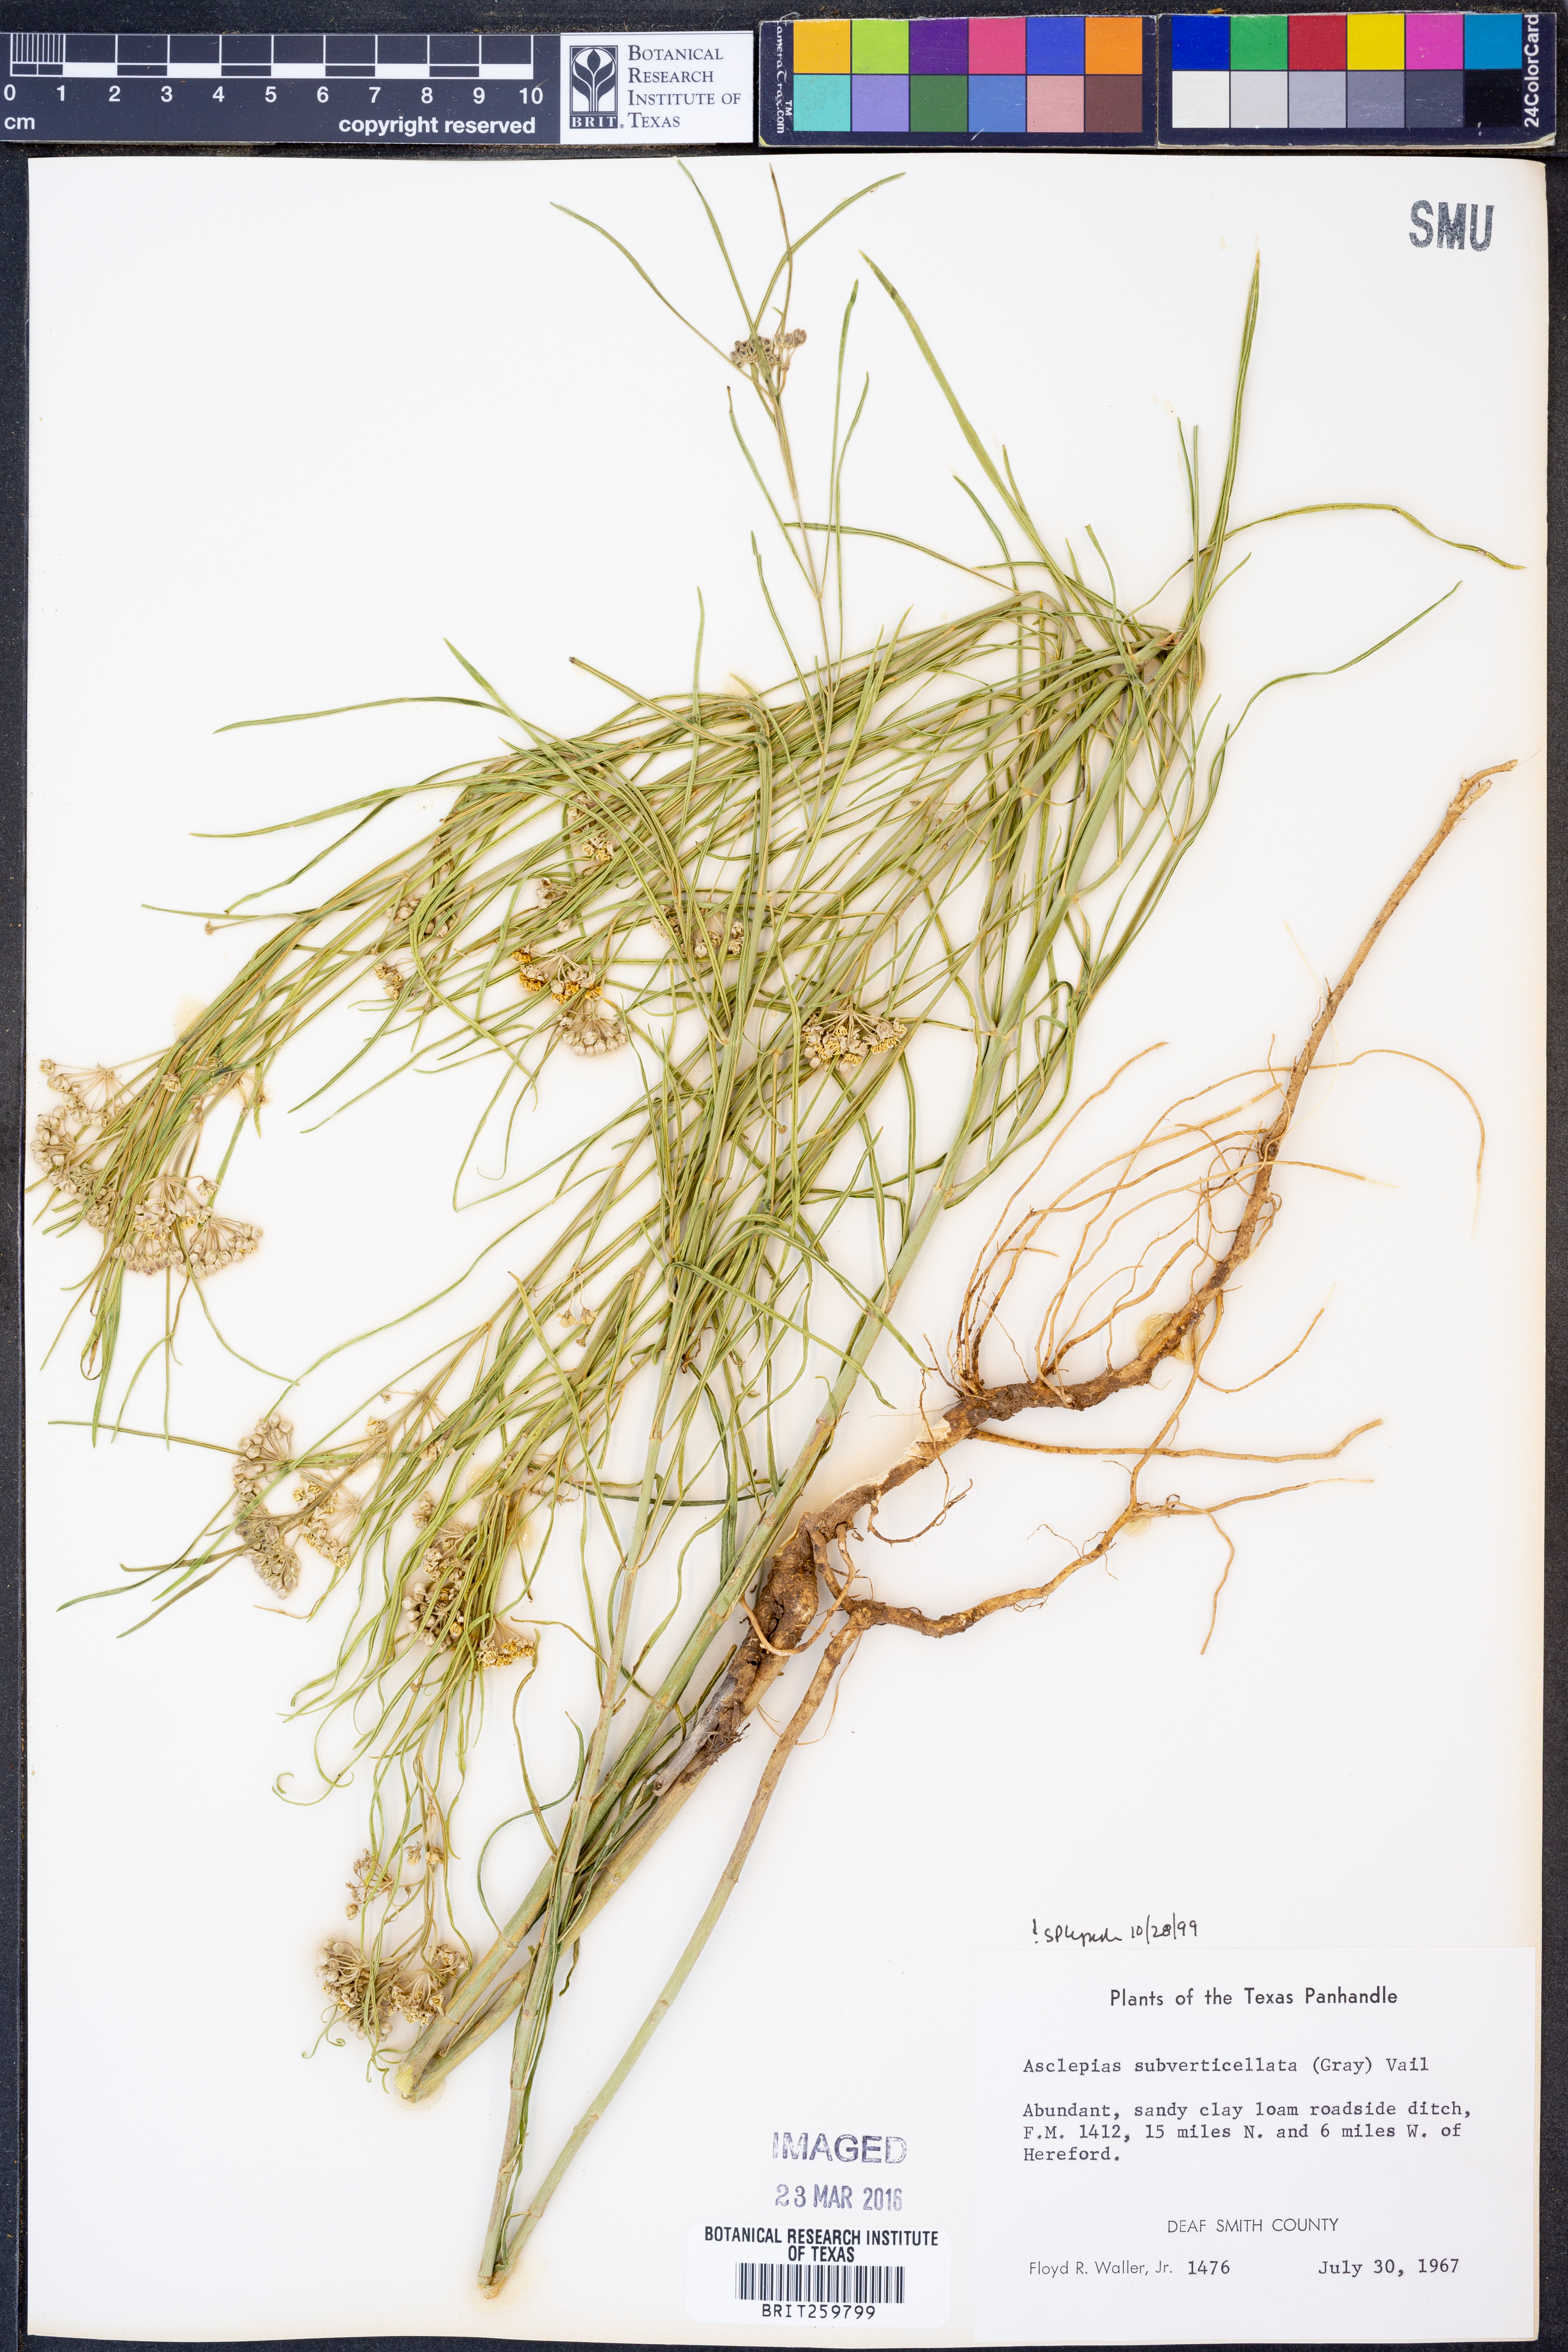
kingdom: Plantae
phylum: Tracheophyta
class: Magnoliopsida
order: Gentianales
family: Apocynaceae
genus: Asclepias
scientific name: Asclepias subverticillata
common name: Horsetail milkweed
